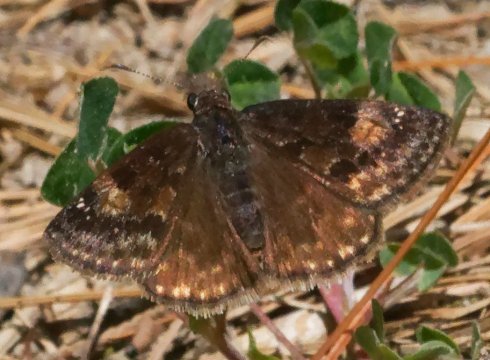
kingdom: Animalia
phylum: Arthropoda
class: Insecta
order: Lepidoptera
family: Hesperiidae
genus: Gesta
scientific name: Gesta
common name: Wild Indigo Duskywing
